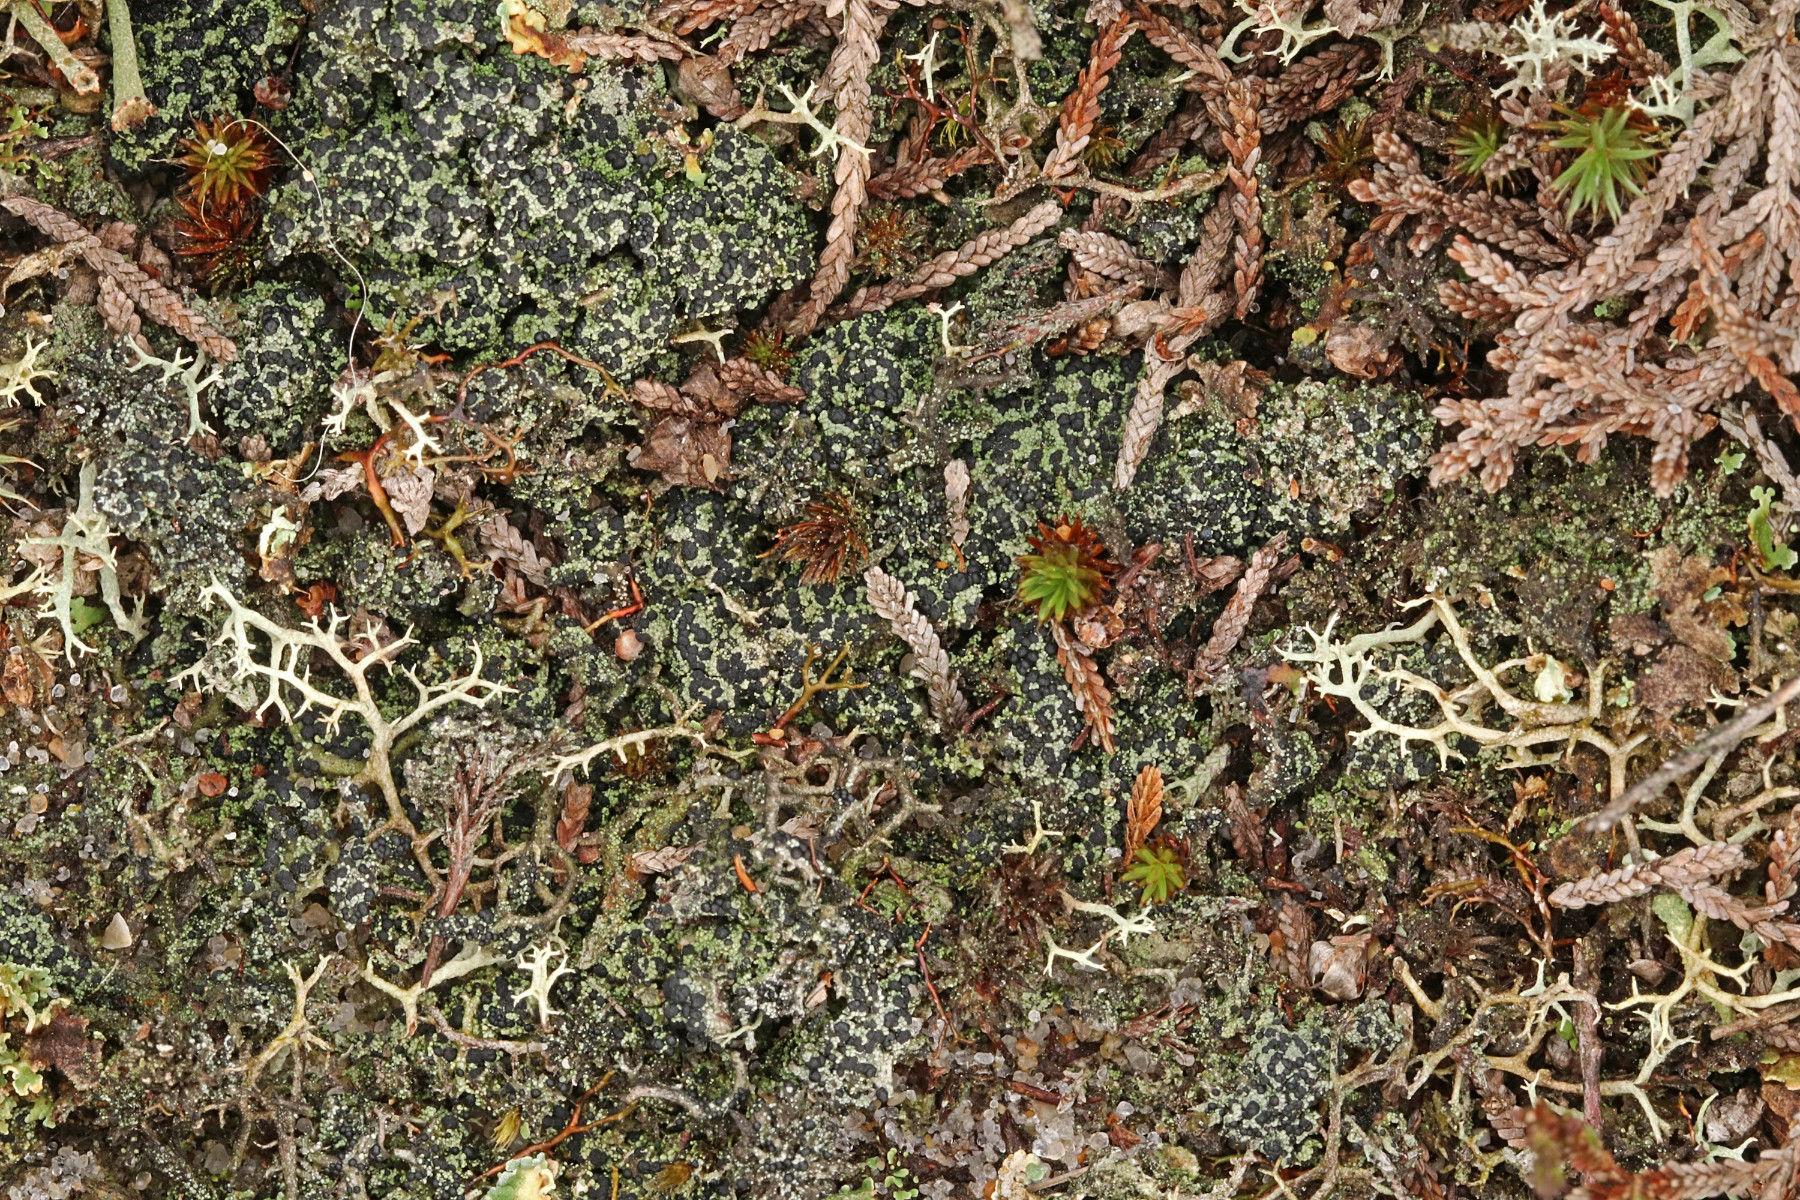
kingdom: Fungi
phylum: Ascomycota
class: Lecanoromycetes
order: Lecanorales
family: Byssolomataceae
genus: Micarea
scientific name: Micarea lignaria
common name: tørve-knaplav
